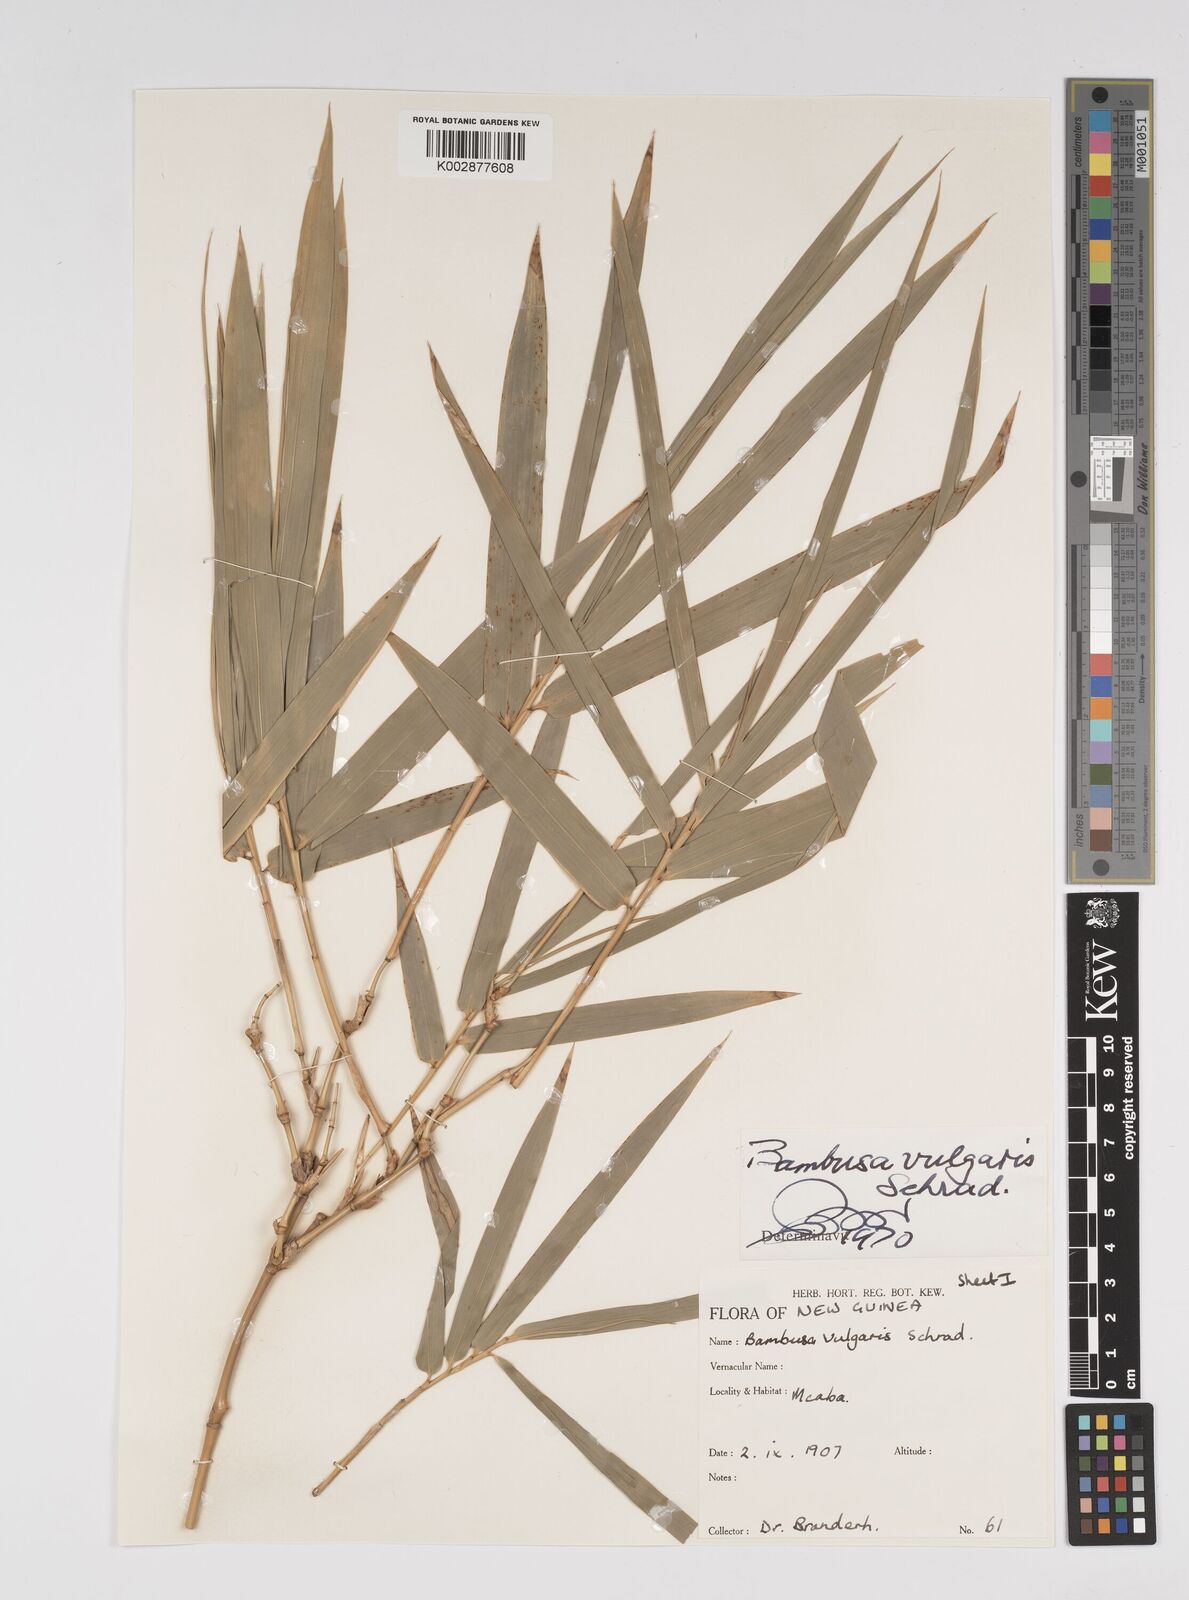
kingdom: Plantae
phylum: Tracheophyta
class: Liliopsida
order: Poales
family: Poaceae
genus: Bambusa
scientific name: Bambusa balcooa
